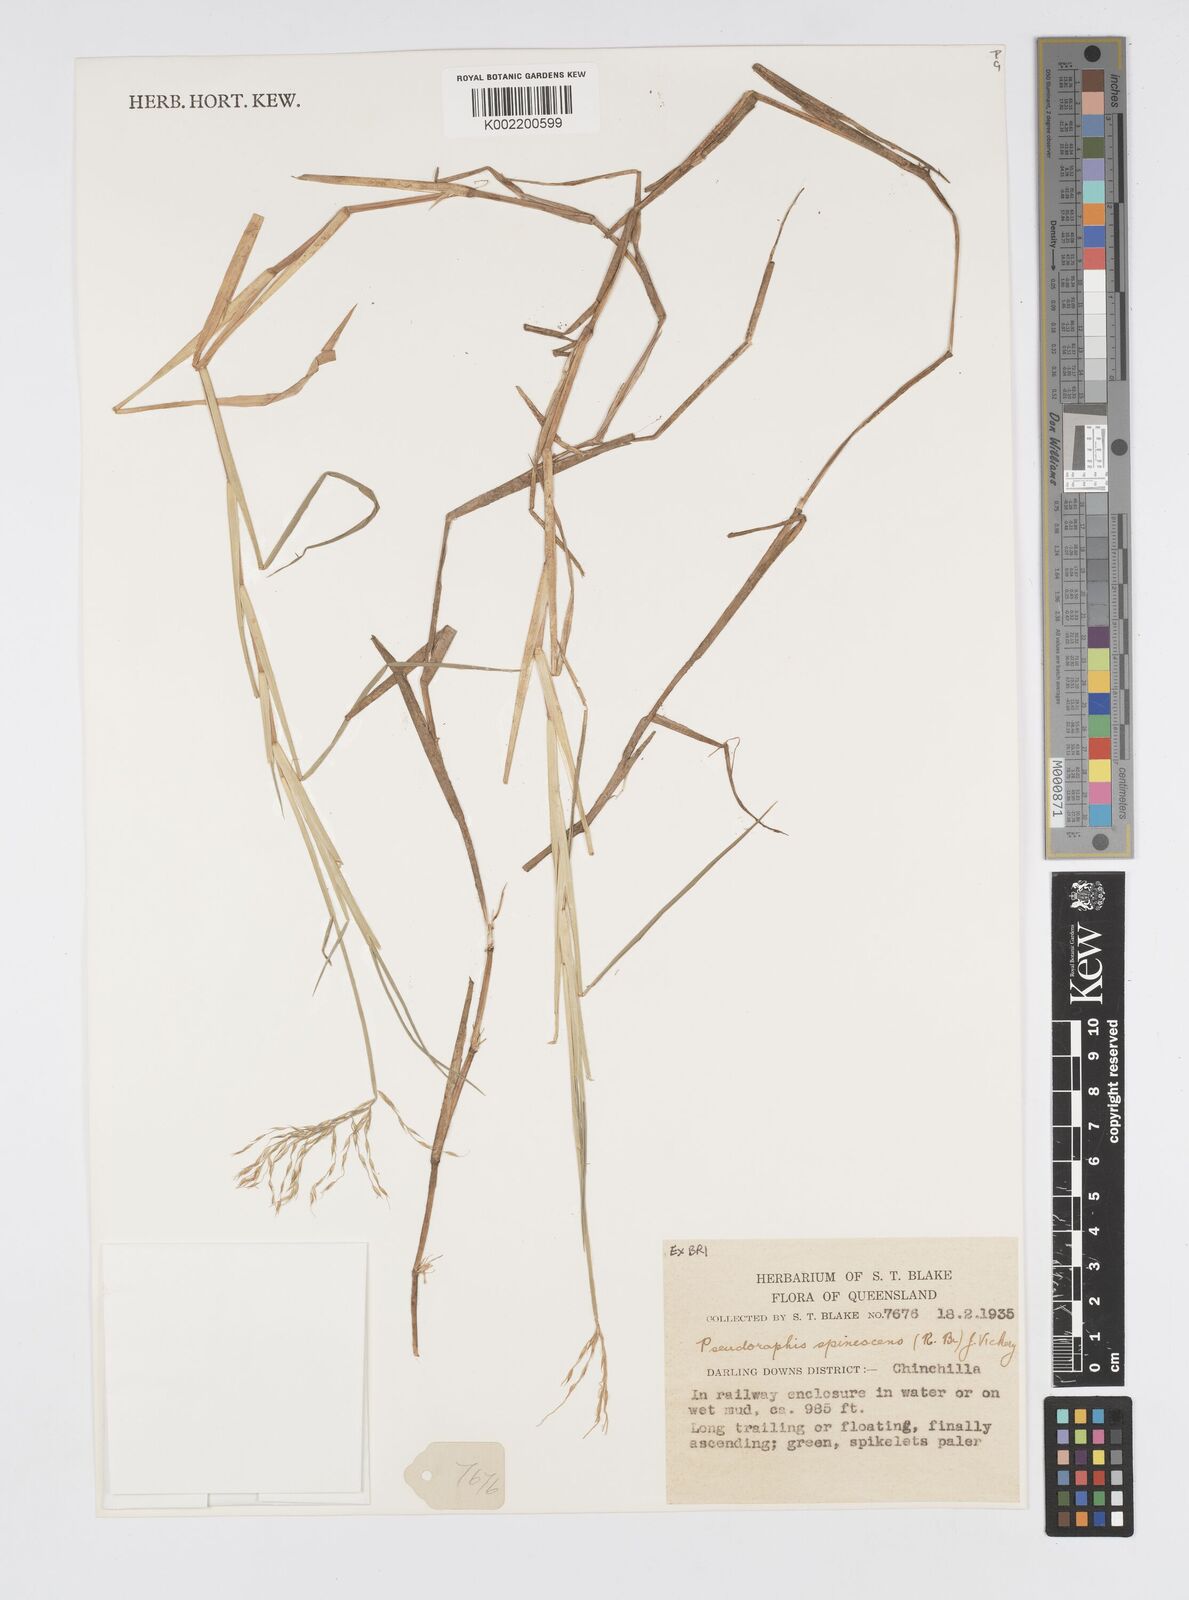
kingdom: Plantae
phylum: Tracheophyta
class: Liliopsida
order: Poales
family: Poaceae
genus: Pseudoraphis
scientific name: Pseudoraphis spinescens
